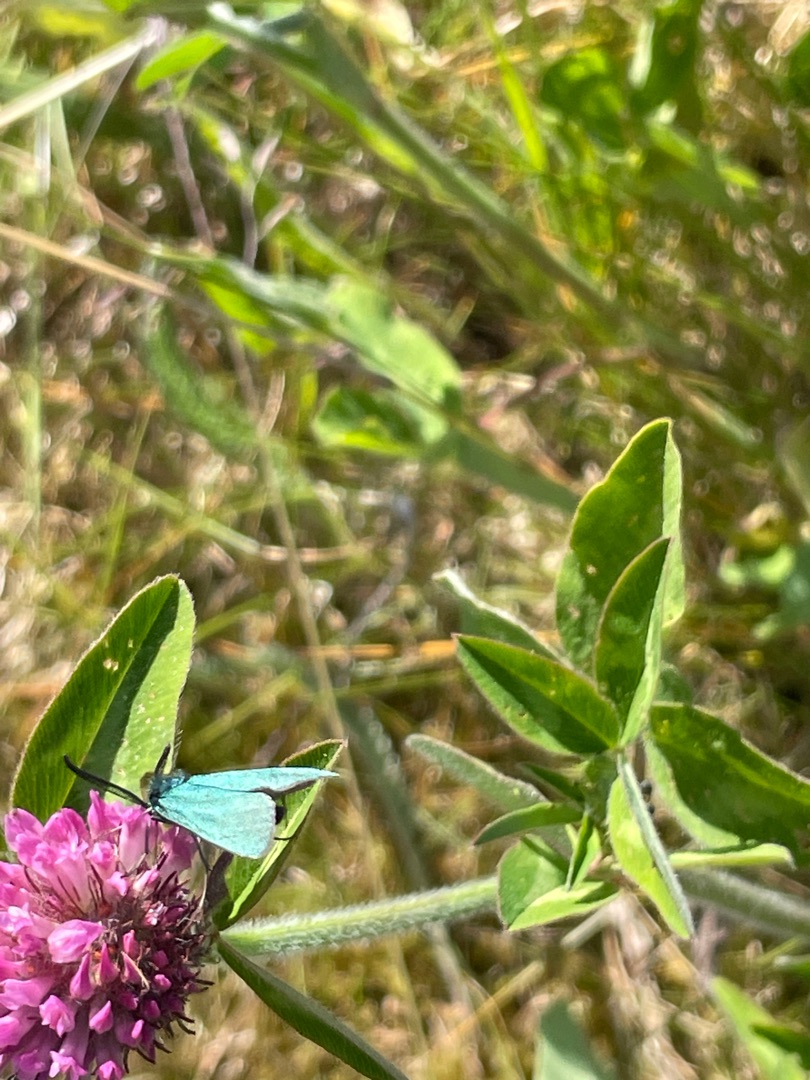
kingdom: Animalia
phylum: Arthropoda
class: Insecta
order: Lepidoptera
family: Zygaenidae
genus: Adscita
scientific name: Adscita statices
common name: Metalvinge
